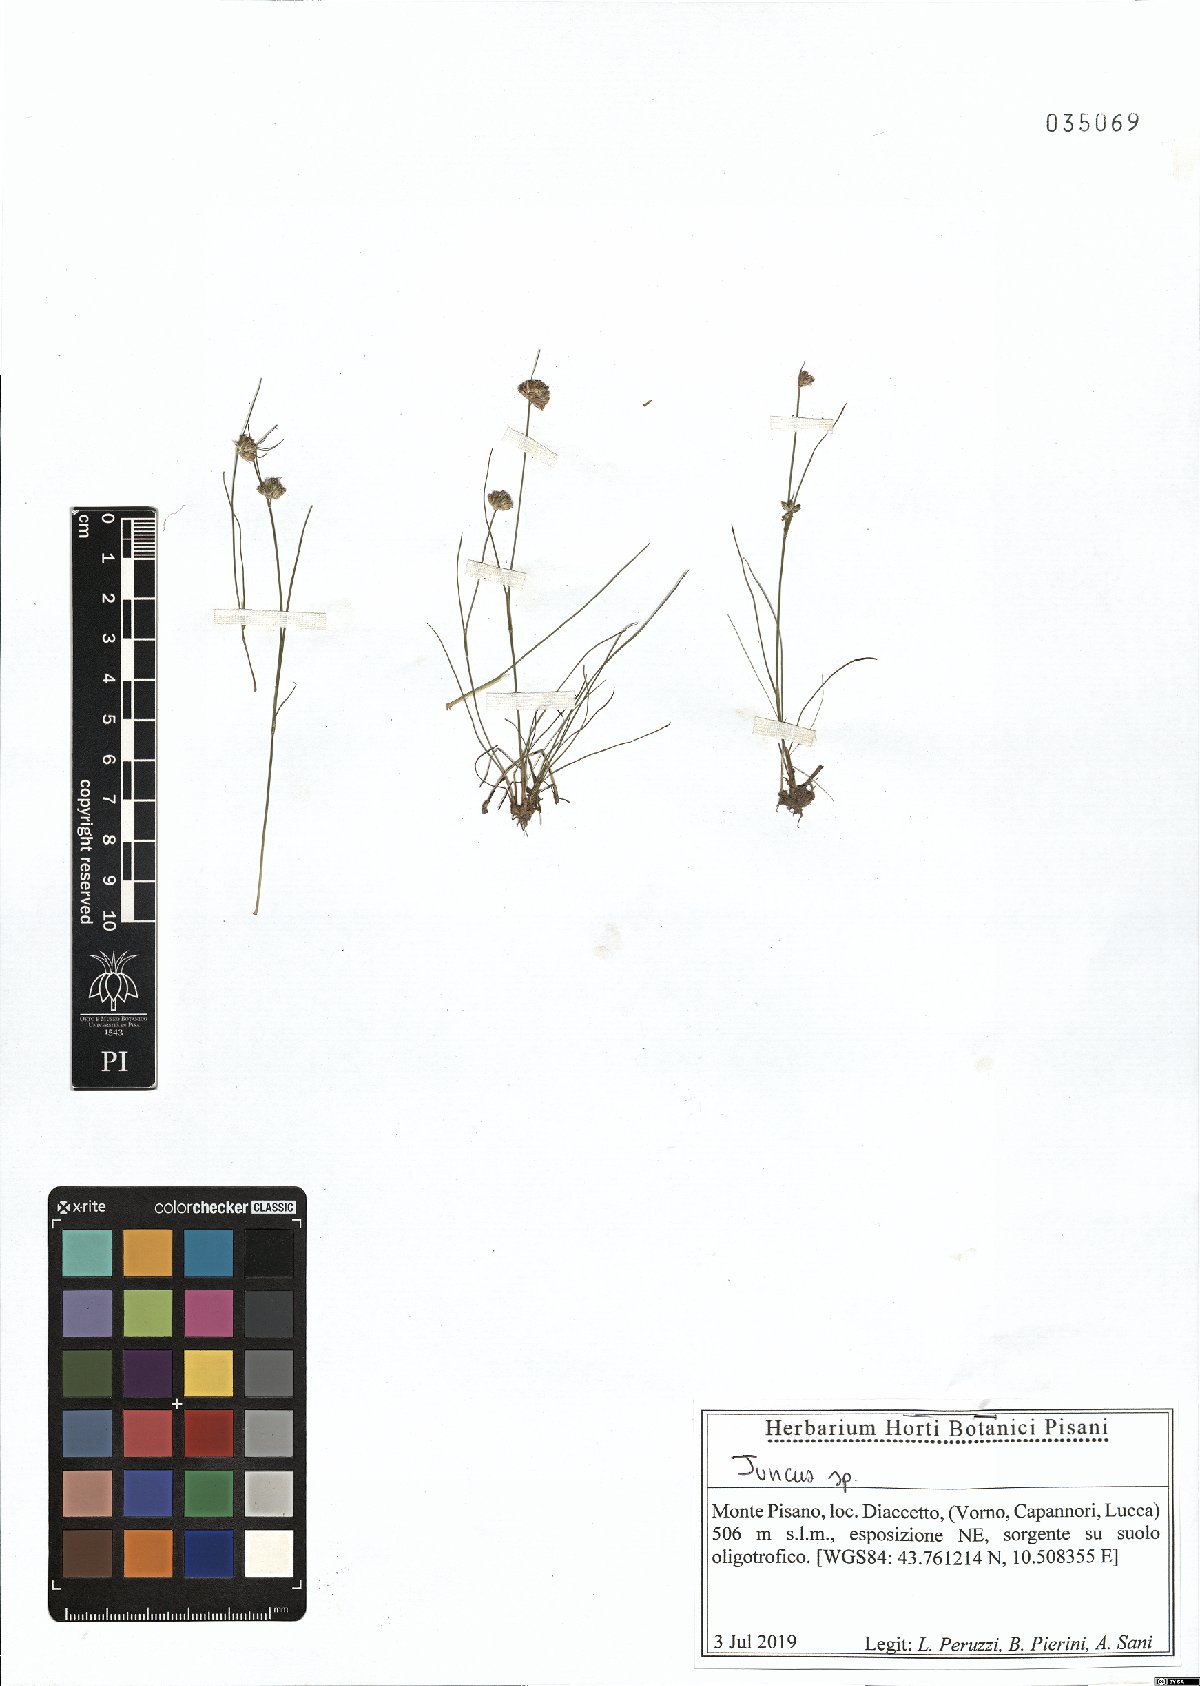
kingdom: Plantae
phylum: Tracheophyta
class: Liliopsida
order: Poales
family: Juncaceae
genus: Juncus
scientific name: Juncus
